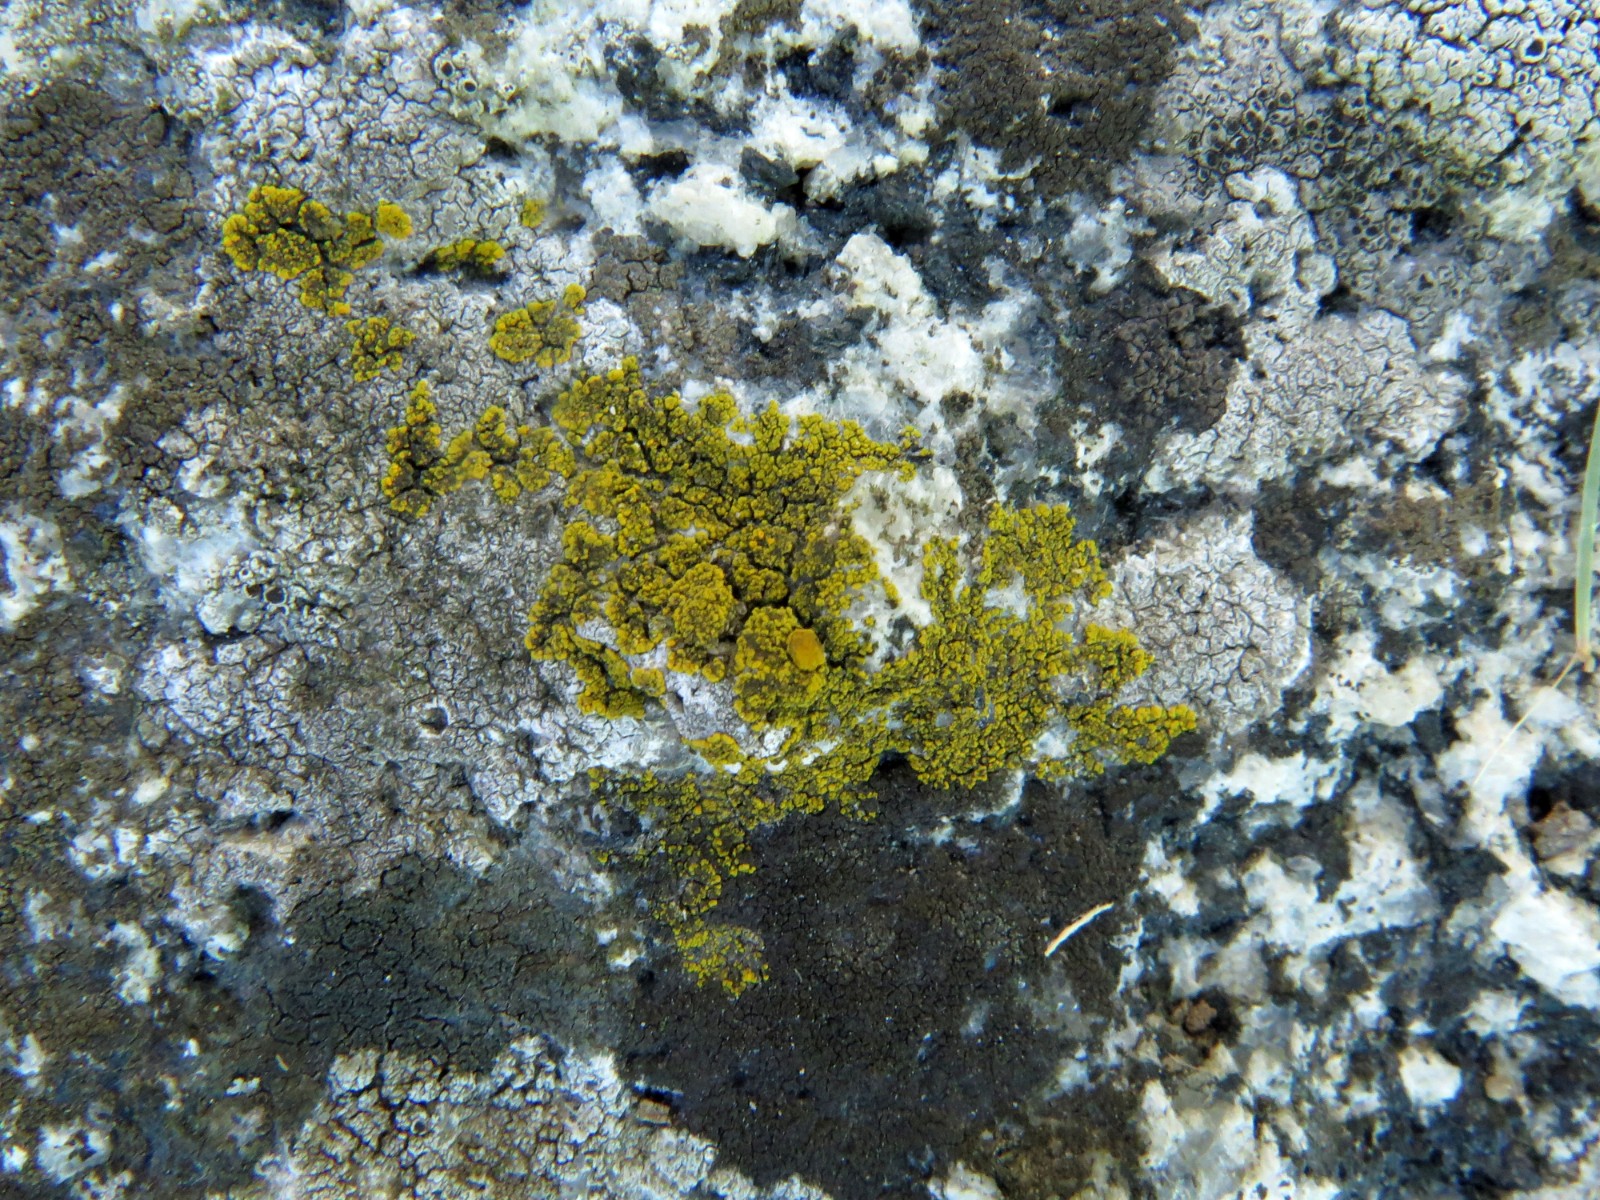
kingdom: Fungi
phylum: Ascomycota
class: Candelariomycetes
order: Candelariales
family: Candelariaceae
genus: Candelariella
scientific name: Candelariella vitellina
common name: almindelig æggeblommelav
